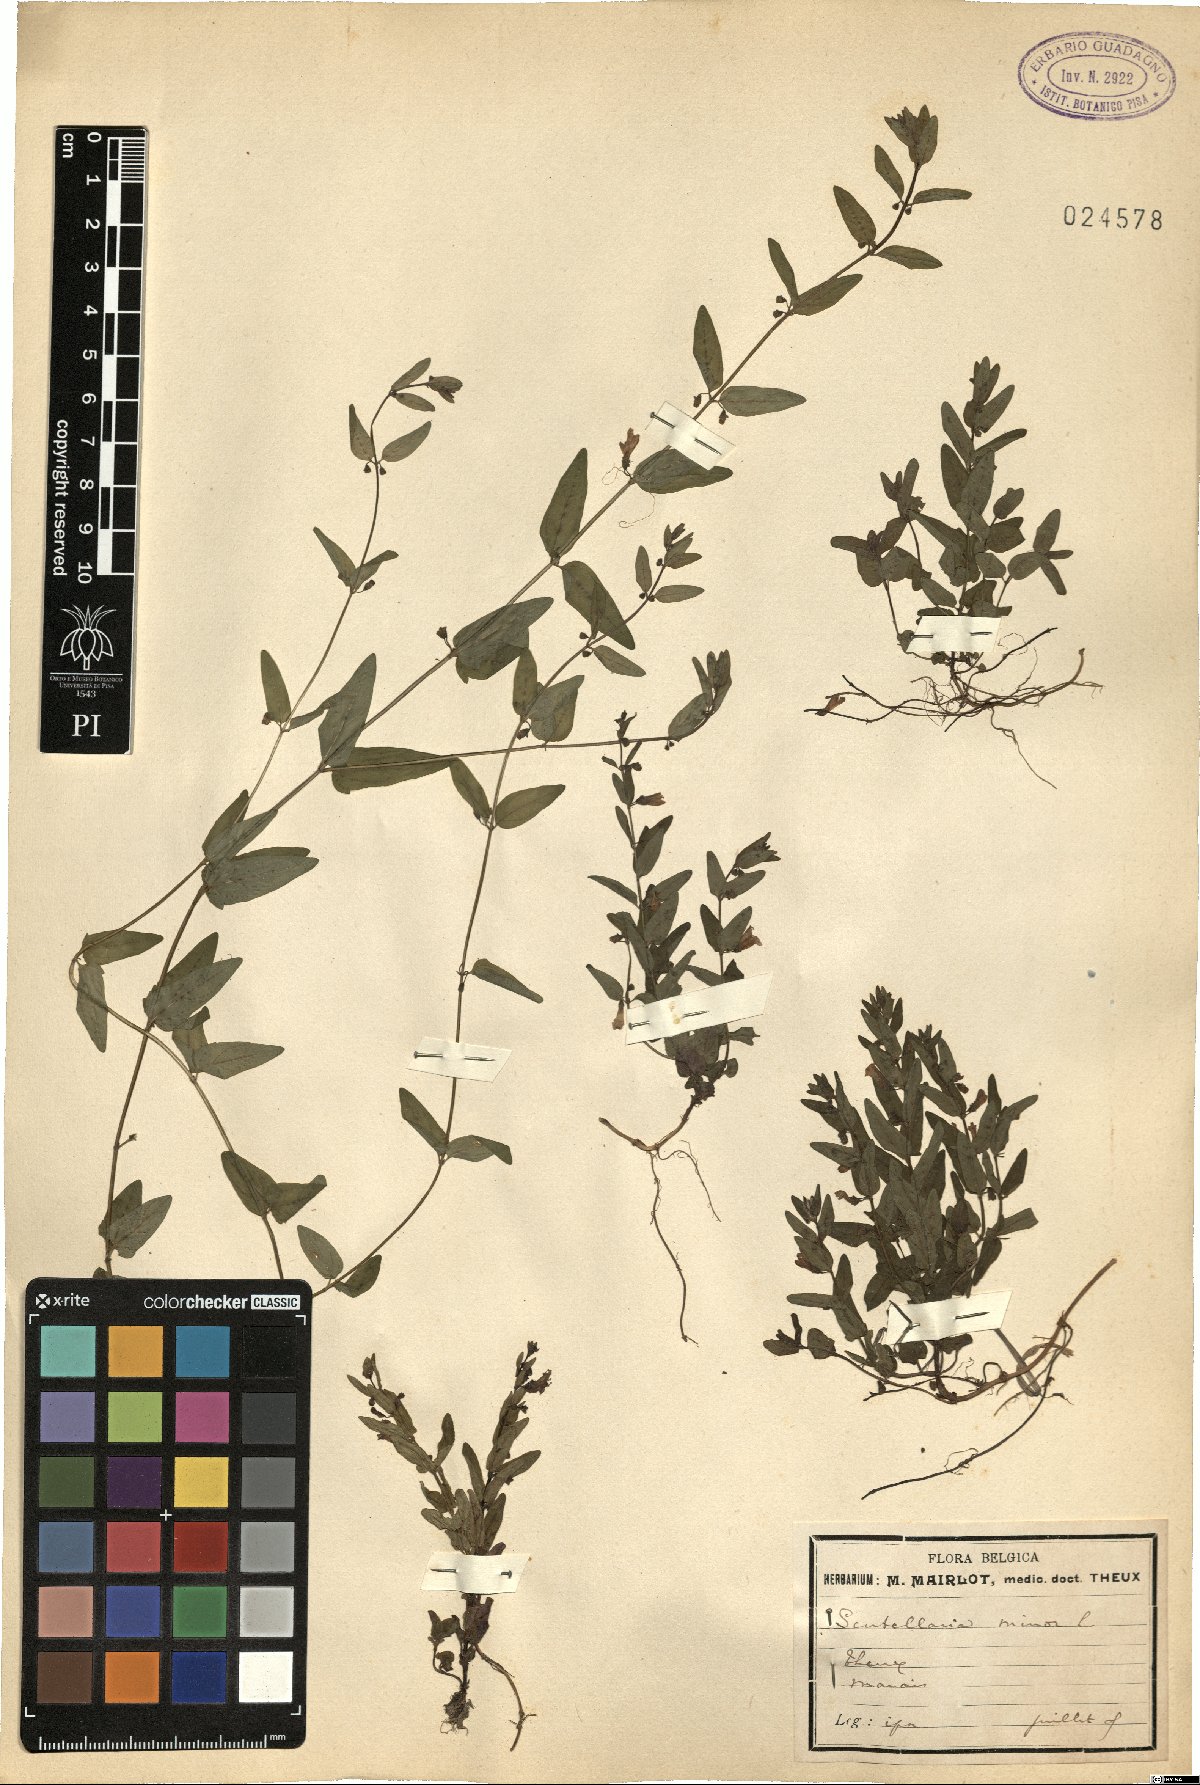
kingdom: Plantae
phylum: Tracheophyta
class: Magnoliopsida
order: Lamiales
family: Lamiaceae
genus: Scutellaria
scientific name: Scutellaria minor
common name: Lesser skullcap
